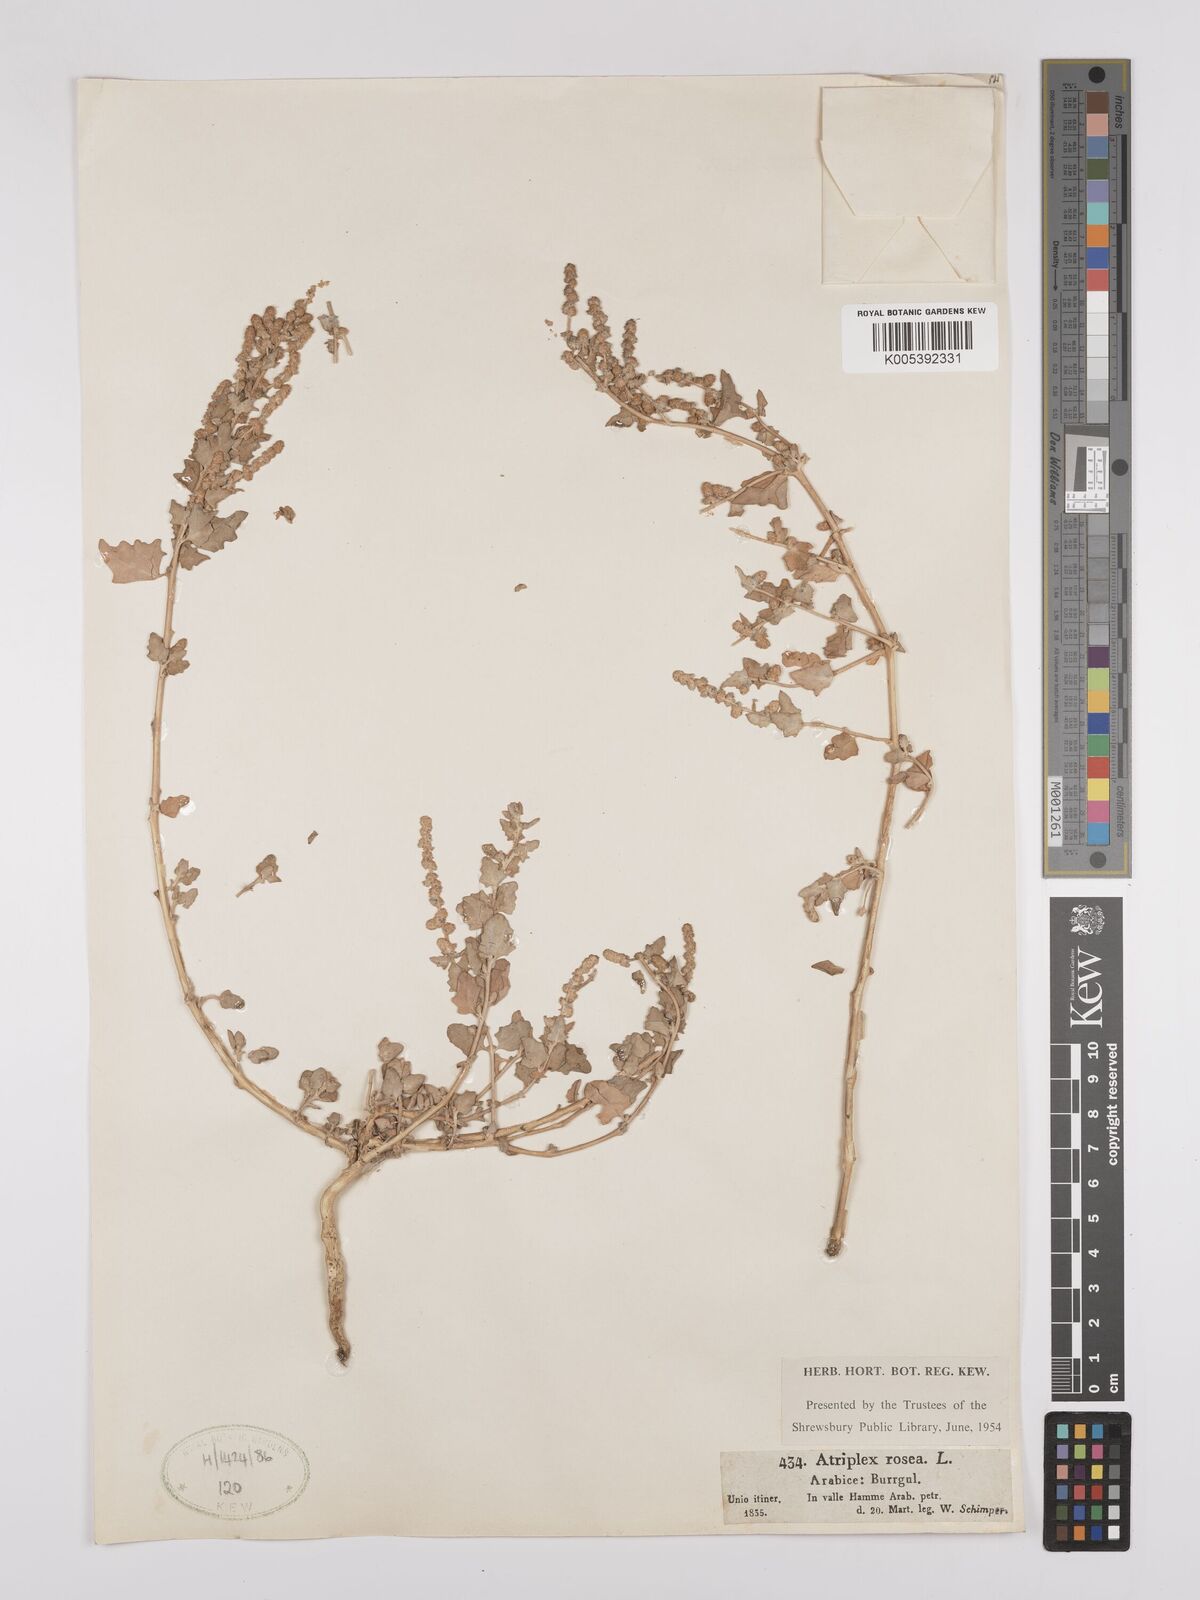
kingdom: Plantae
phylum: Tracheophyta
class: Magnoliopsida
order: Caryophyllales
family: Amaranthaceae
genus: Atriplex
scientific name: Atriplex
